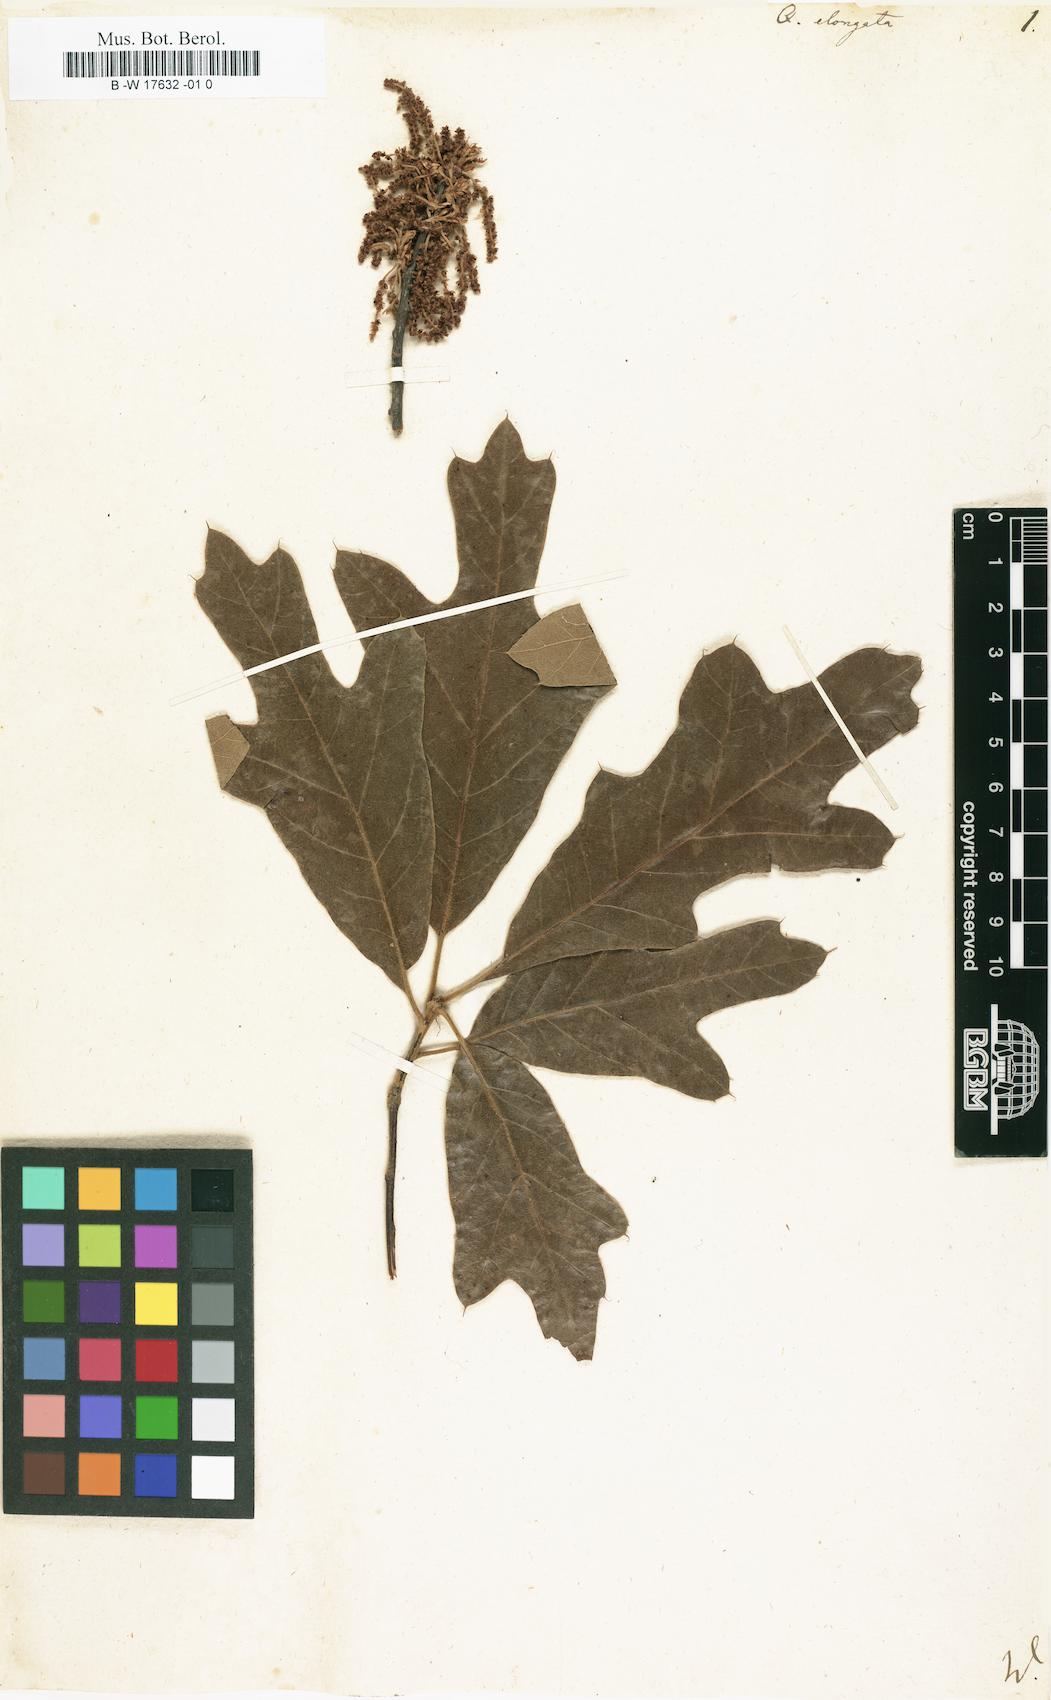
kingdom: Plantae
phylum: Tracheophyta
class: Magnoliopsida
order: Fagales
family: Fagaceae
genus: Quercus
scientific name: Quercus elongata
